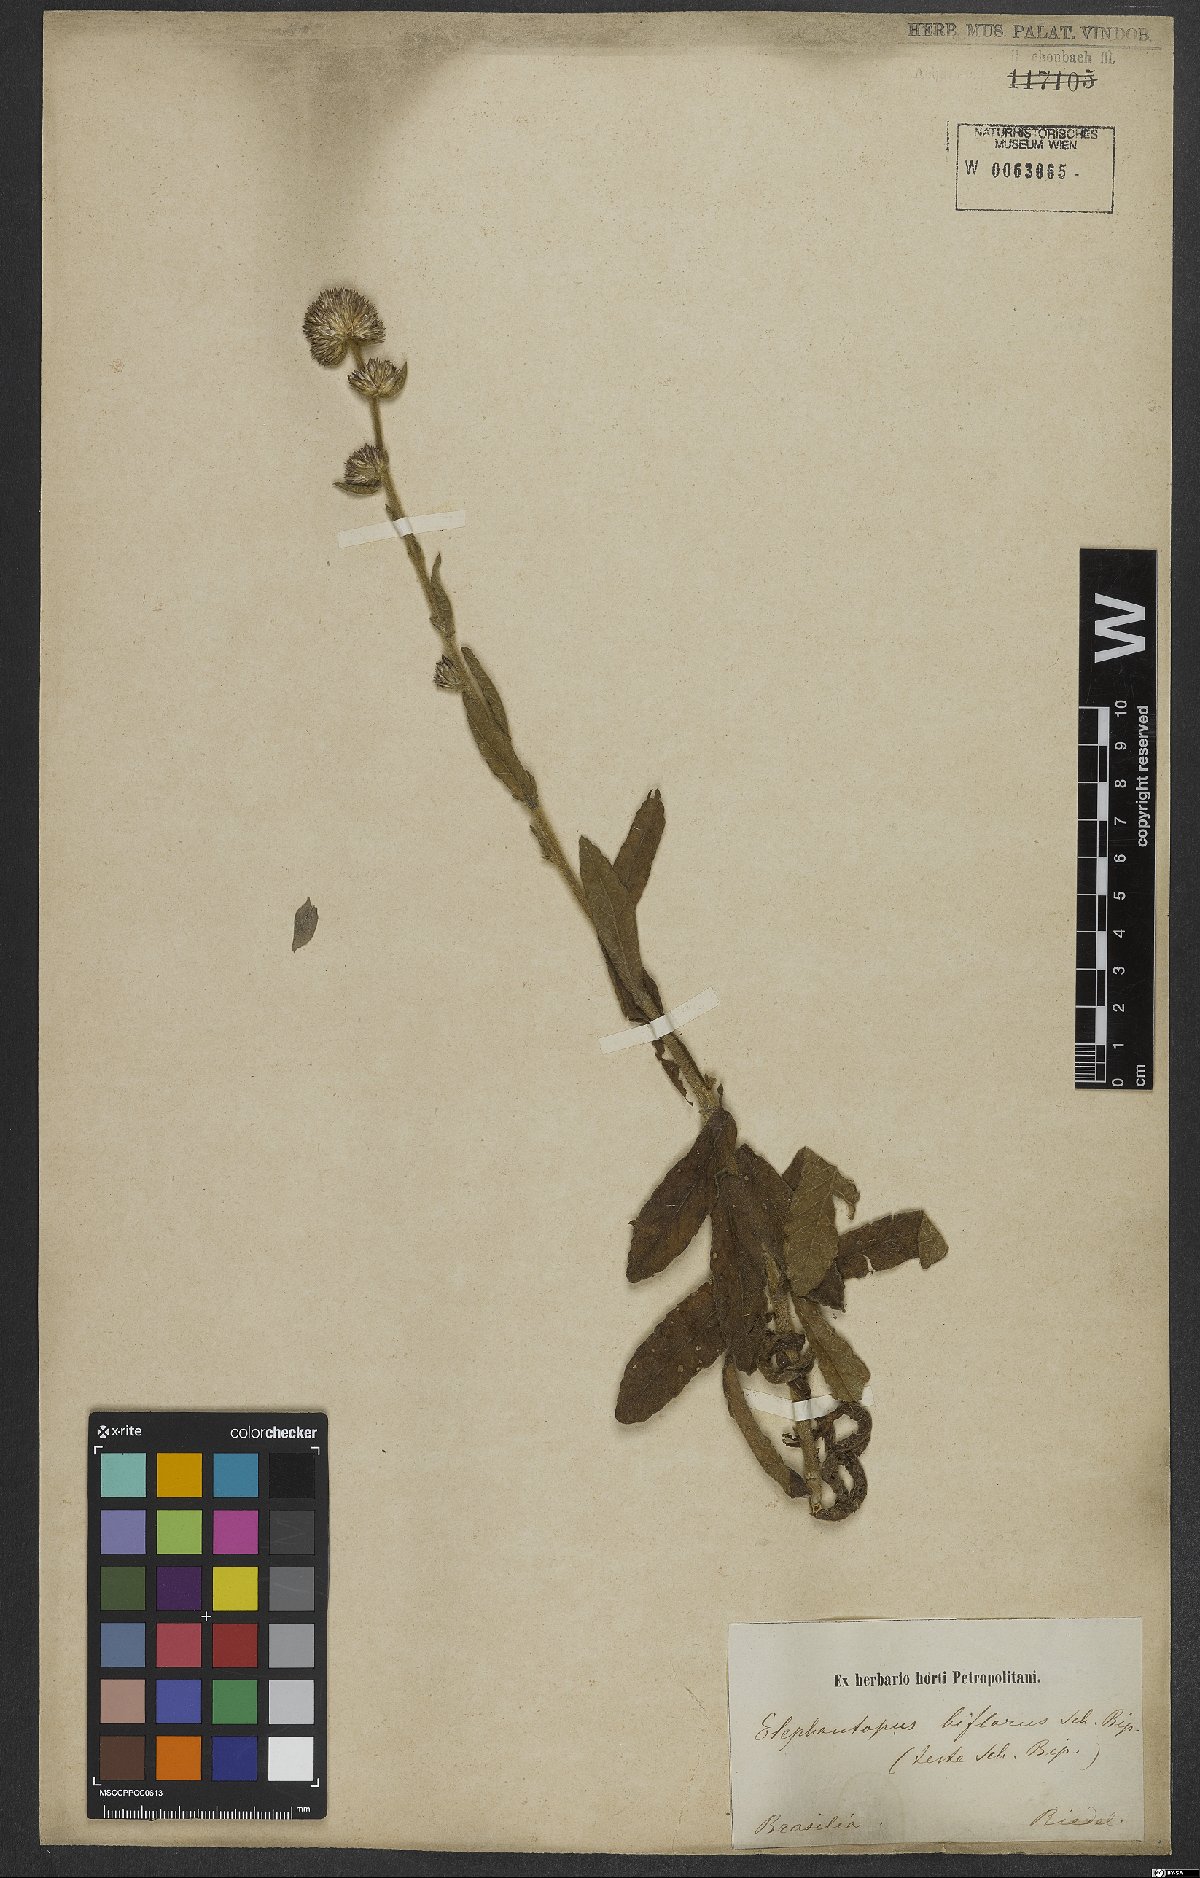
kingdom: Plantae
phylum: Tracheophyta
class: Magnoliopsida
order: Asterales
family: Asteraceae
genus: Elephantopus
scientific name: Elephantopus biflorus
